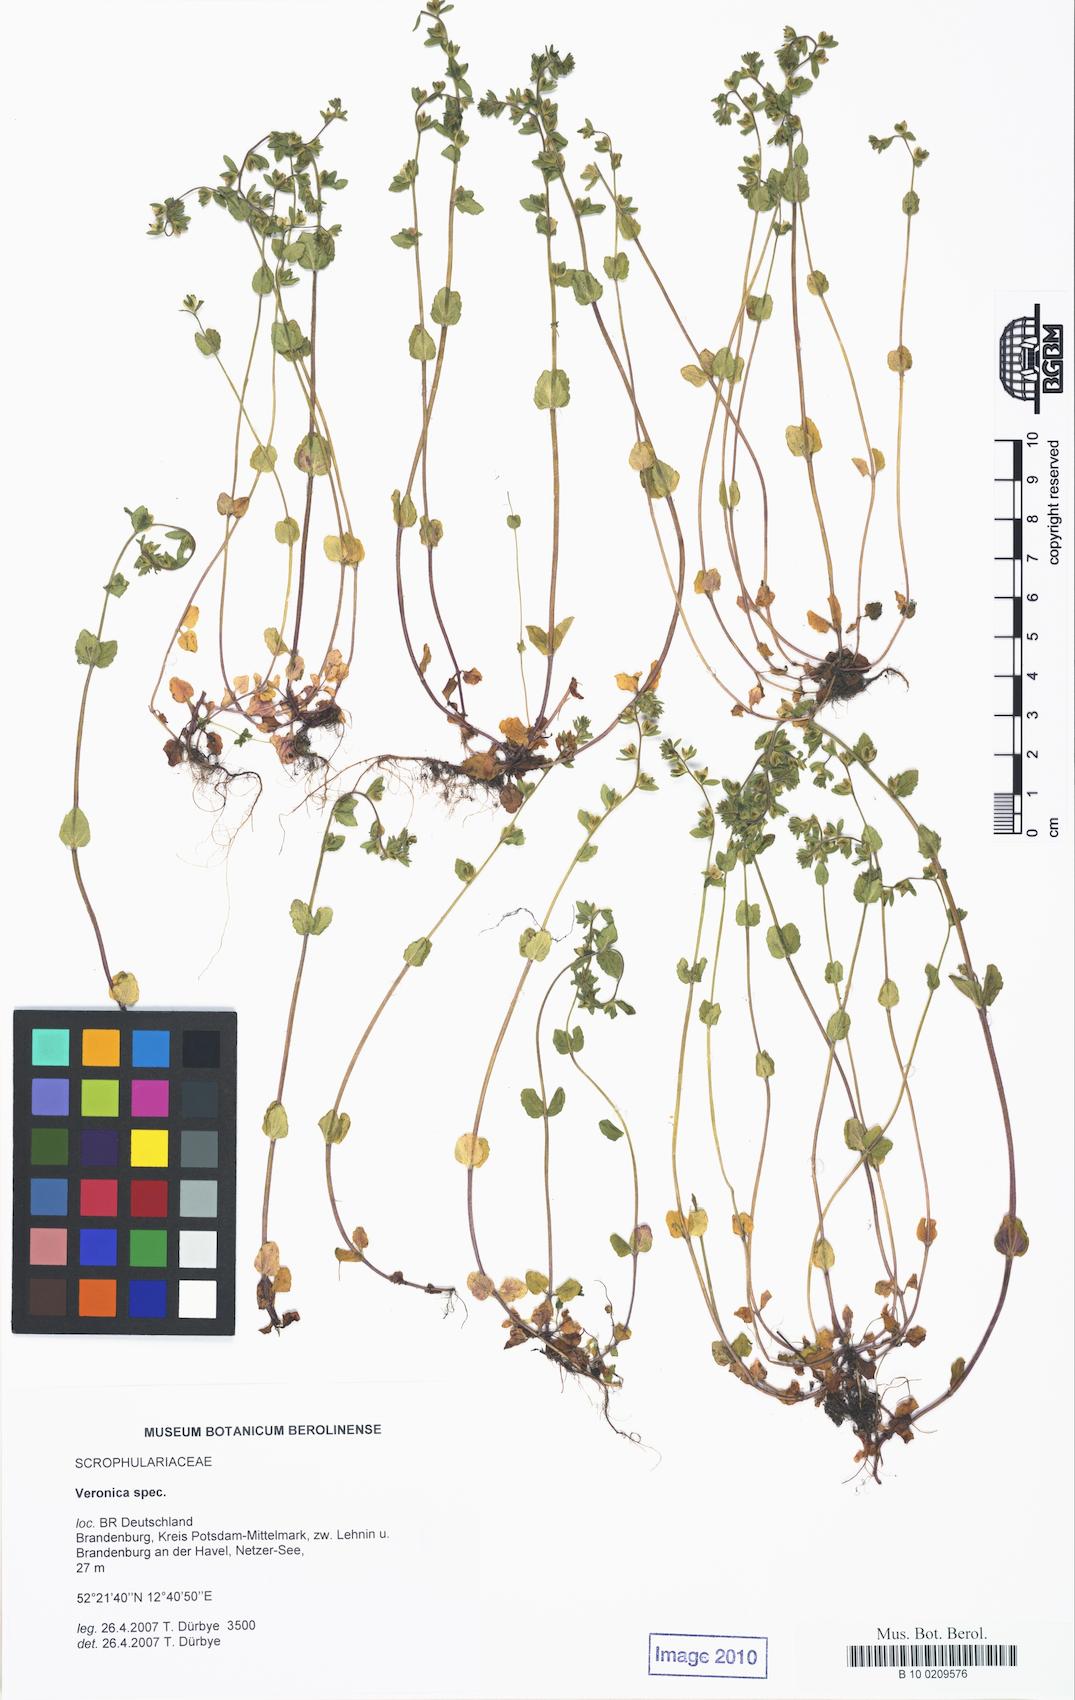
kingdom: Plantae
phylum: Tracheophyta
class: Magnoliopsida
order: Lamiales
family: Plantaginaceae
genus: Veronica
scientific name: Veronica arvensis
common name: Corn speedwell
